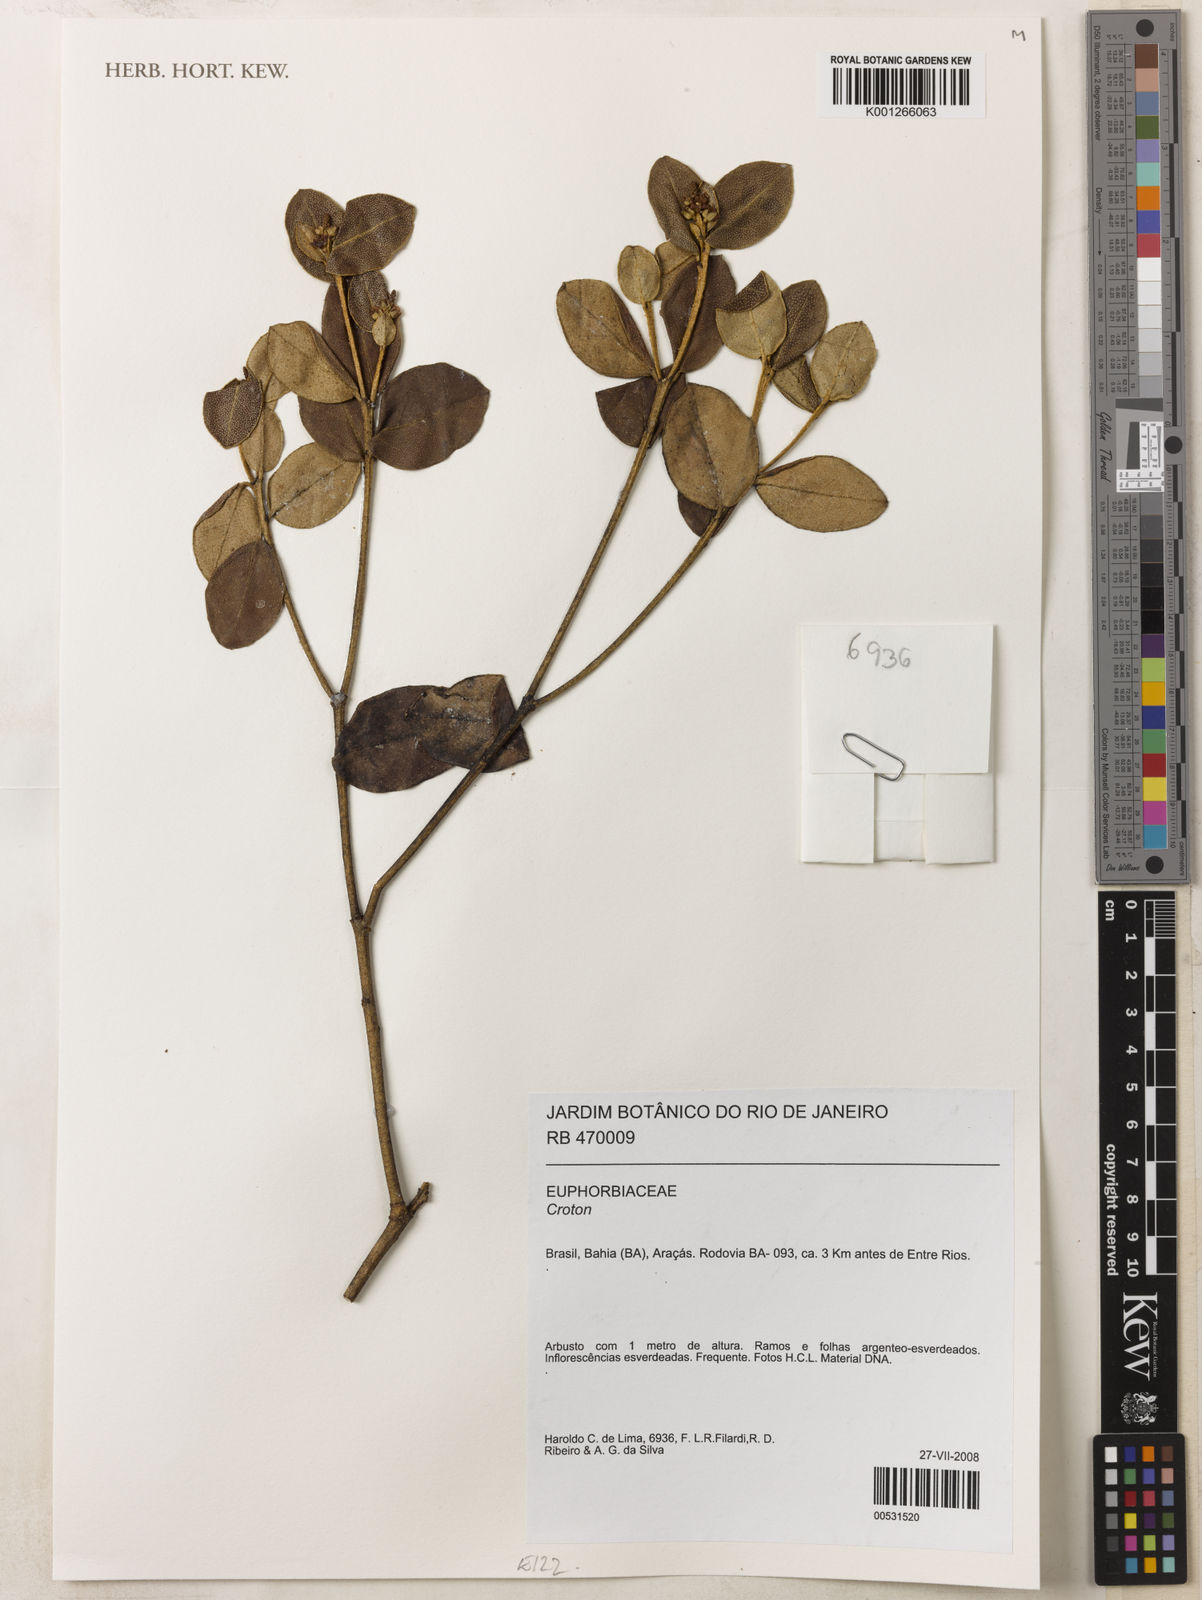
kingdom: Plantae
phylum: Tracheophyta
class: Magnoliopsida
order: Malpighiales
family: Euphorbiaceae
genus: Croton
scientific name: Croton myrsinites
